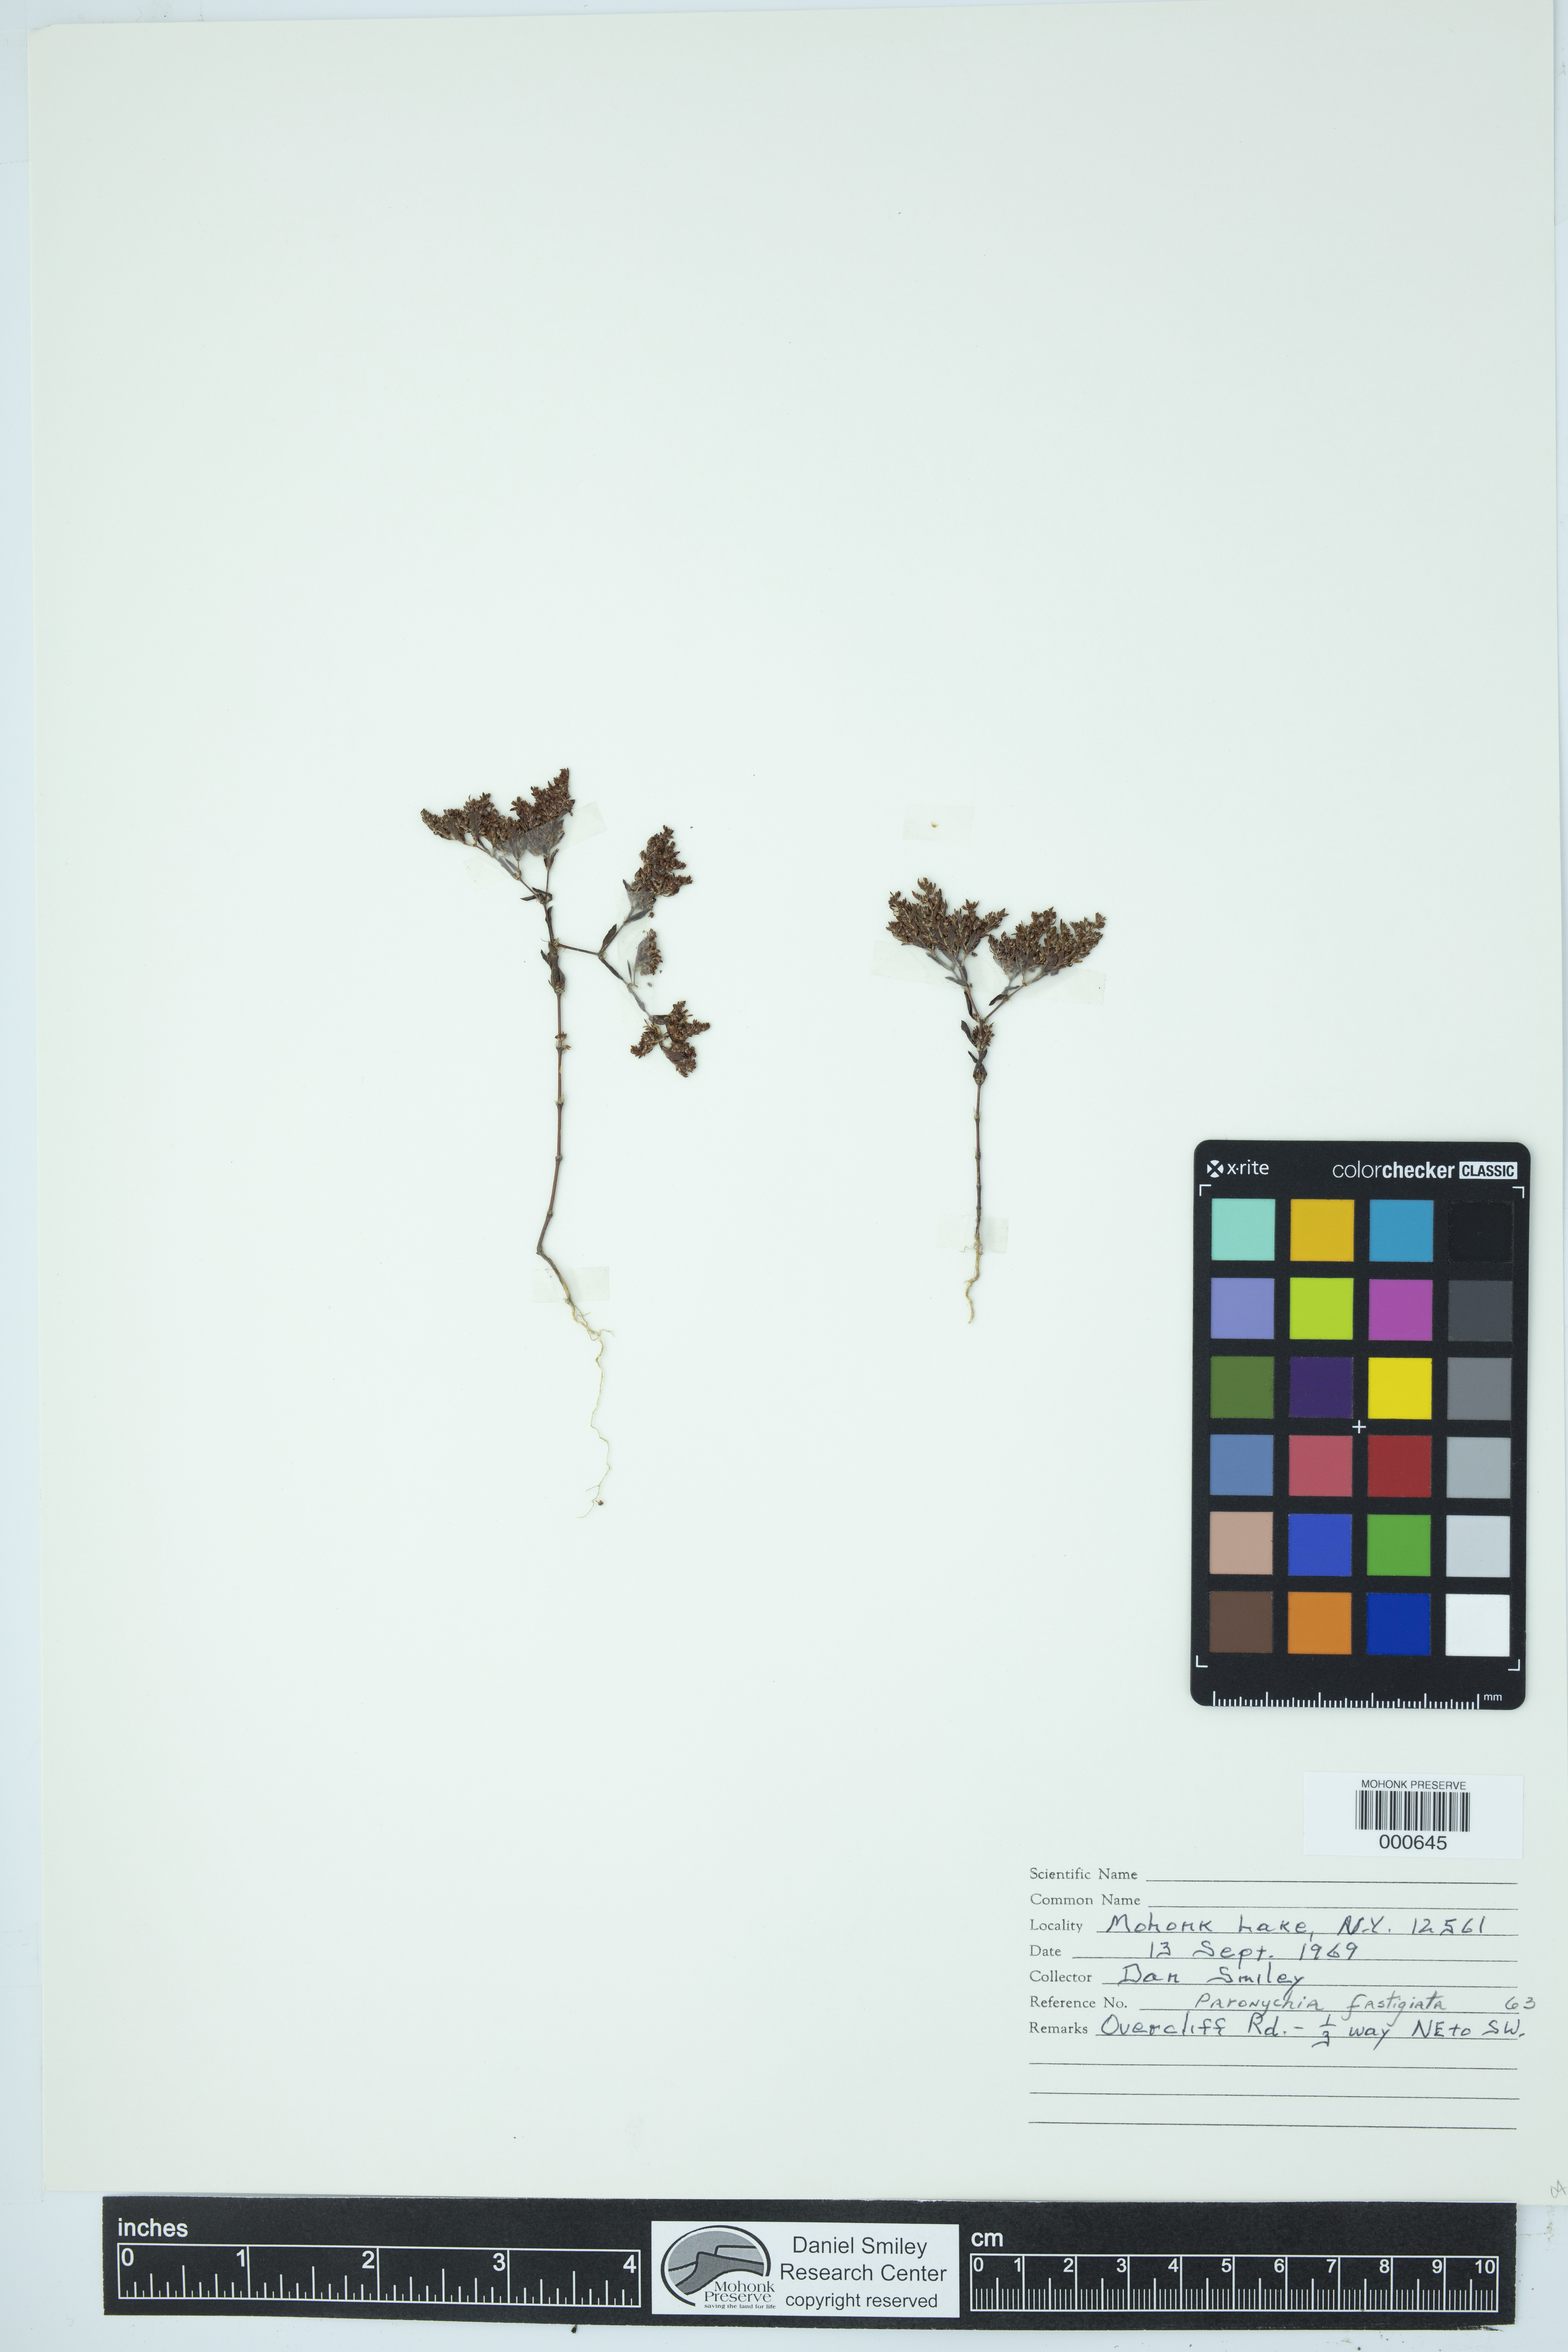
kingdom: Plantae
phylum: Tracheophyta
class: Magnoliopsida
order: Caryophyllales
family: Caryophyllaceae
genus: Paronychia
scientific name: Paronychia fastigiata
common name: Branching forked whitlow-wort
